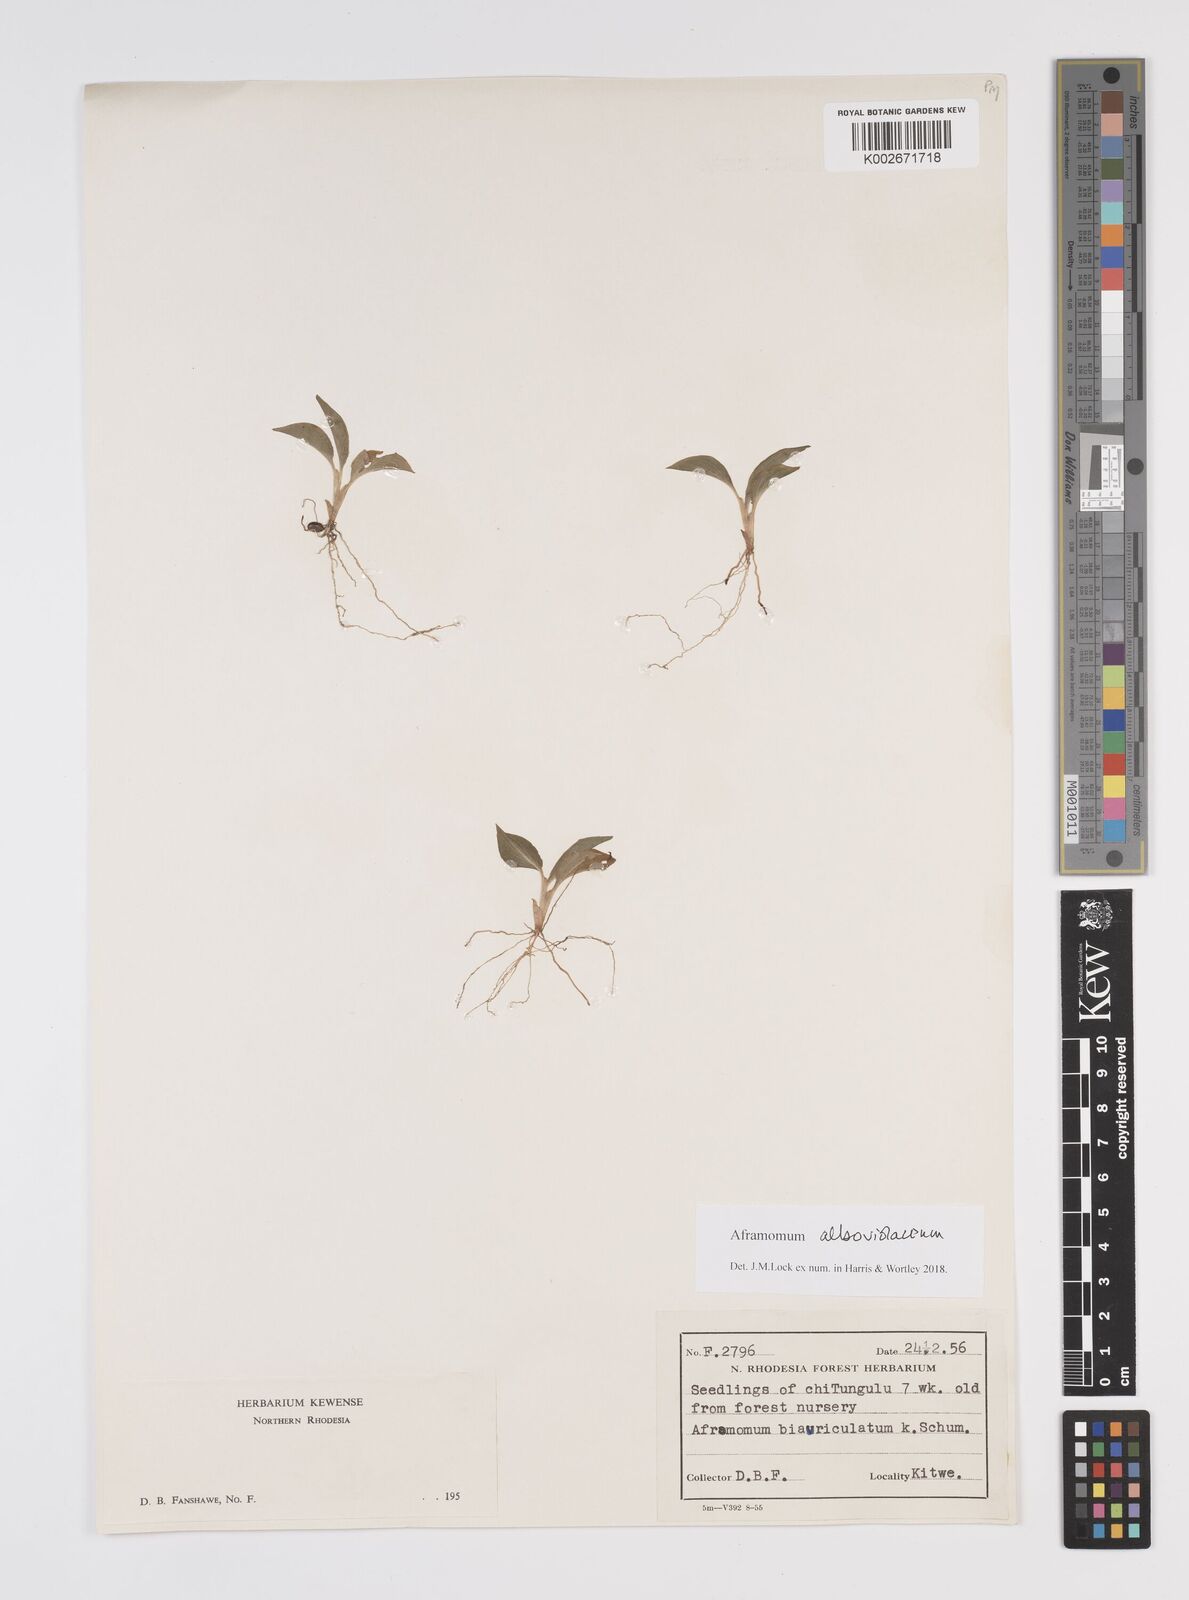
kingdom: Plantae
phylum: Tracheophyta
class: Liliopsida
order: Zingiberales
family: Zingiberaceae
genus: Aframomum
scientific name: Aframomum alboviolaceum
